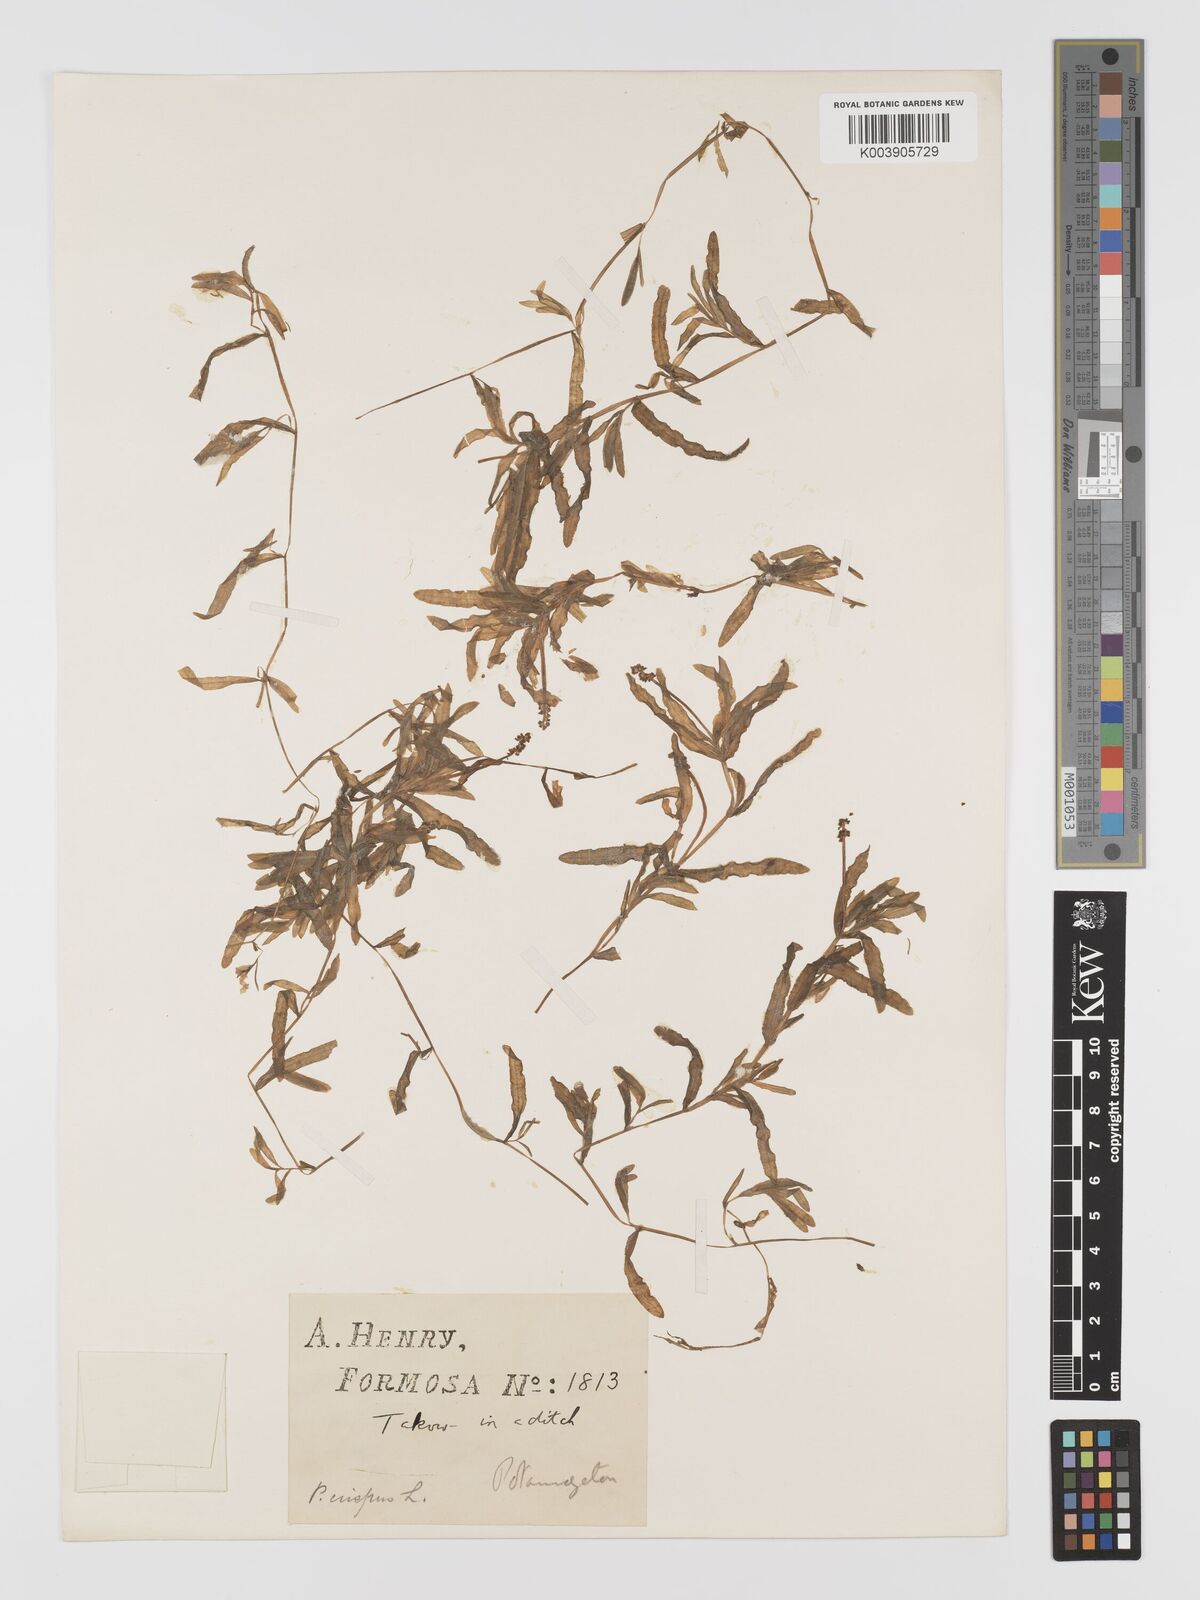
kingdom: Plantae
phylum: Tracheophyta
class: Liliopsida
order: Alismatales
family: Potamogetonaceae
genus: Potamogeton
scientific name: Potamogeton crispus
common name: Curled pondweed
